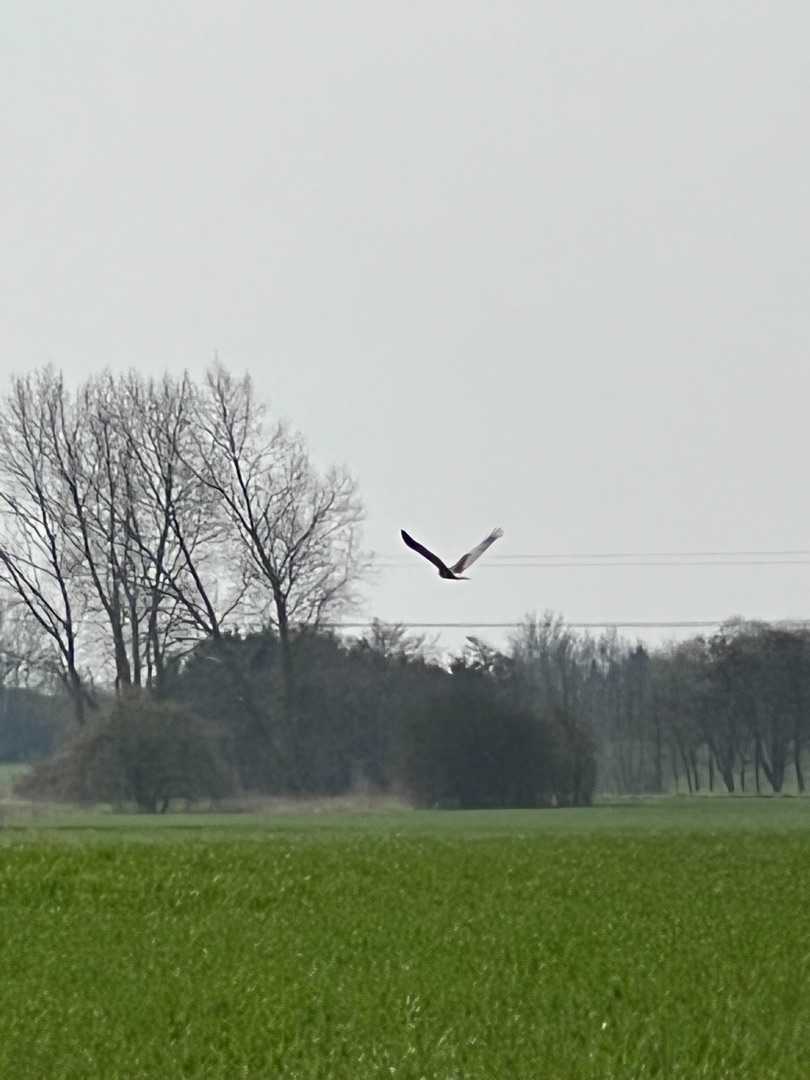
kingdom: Animalia
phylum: Chordata
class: Aves
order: Accipitriformes
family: Accipitridae
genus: Circus
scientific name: Circus aeruginosus
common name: Rørhøg
